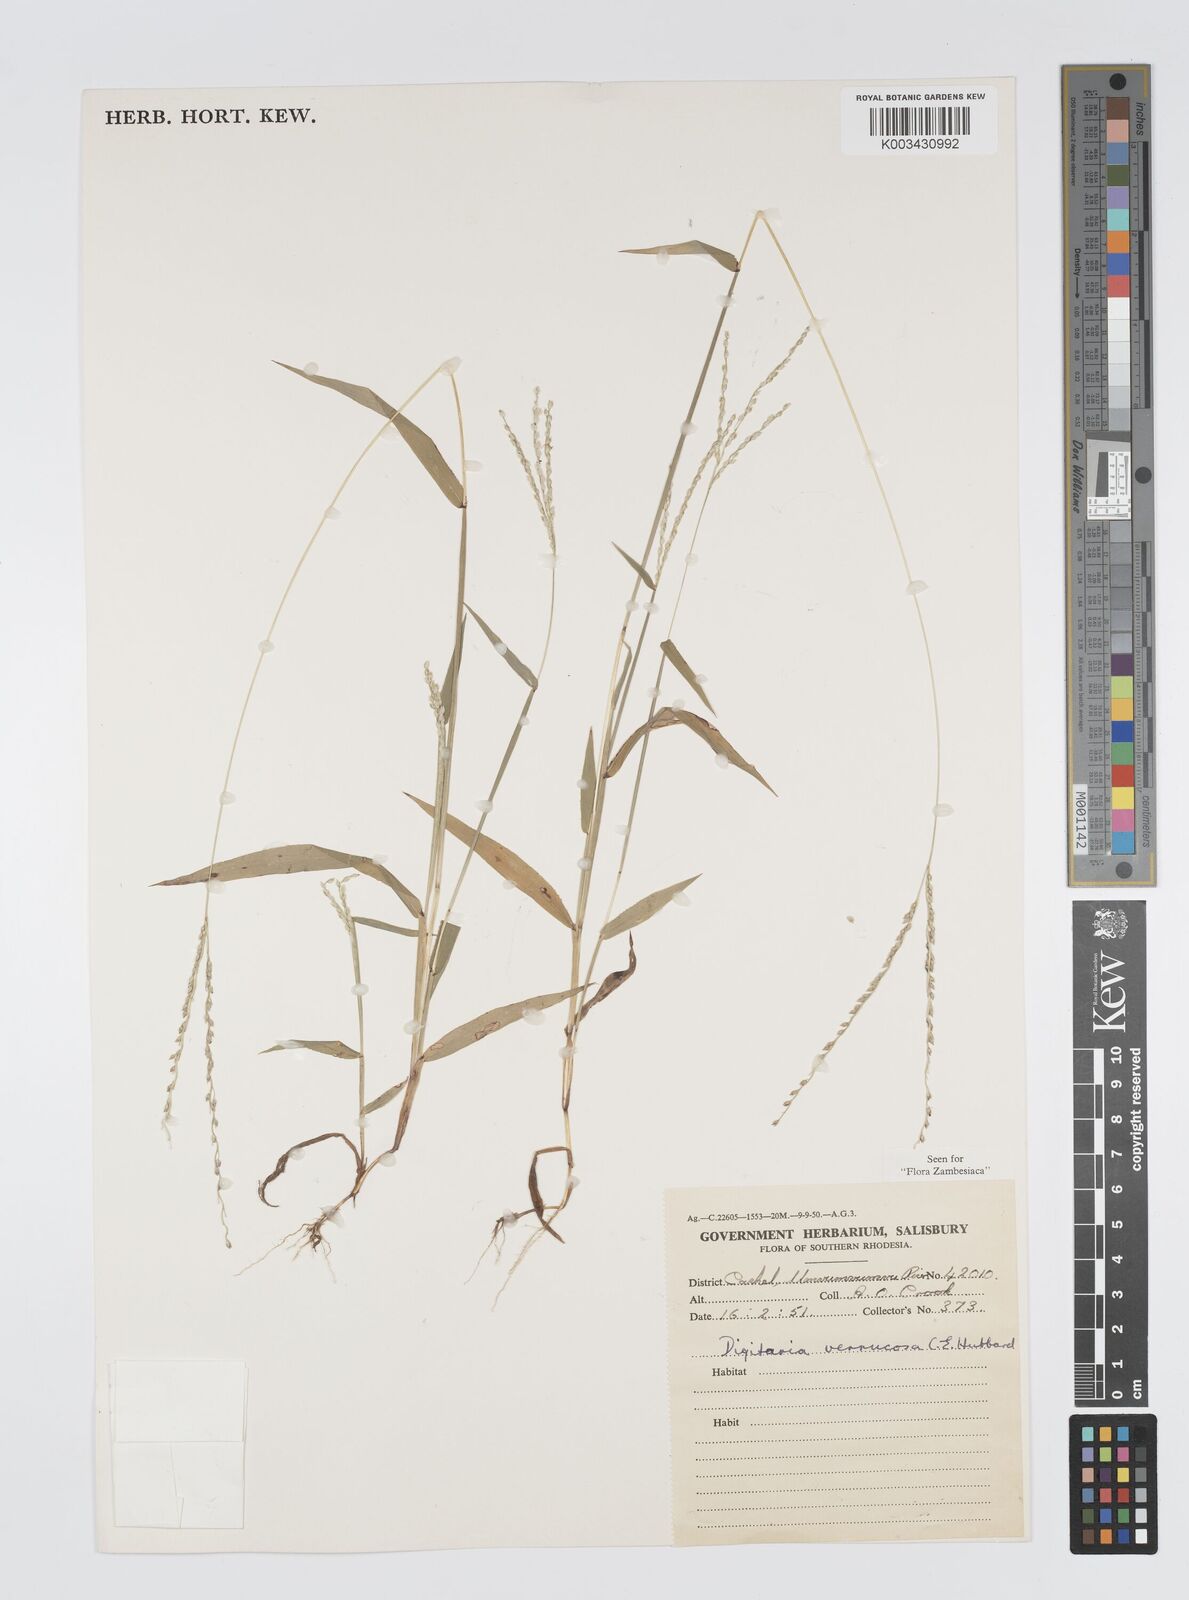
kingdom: Plantae
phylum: Tracheophyta
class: Liliopsida
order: Poales
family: Poaceae
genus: Digitaria
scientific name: Digitaria angolensis
